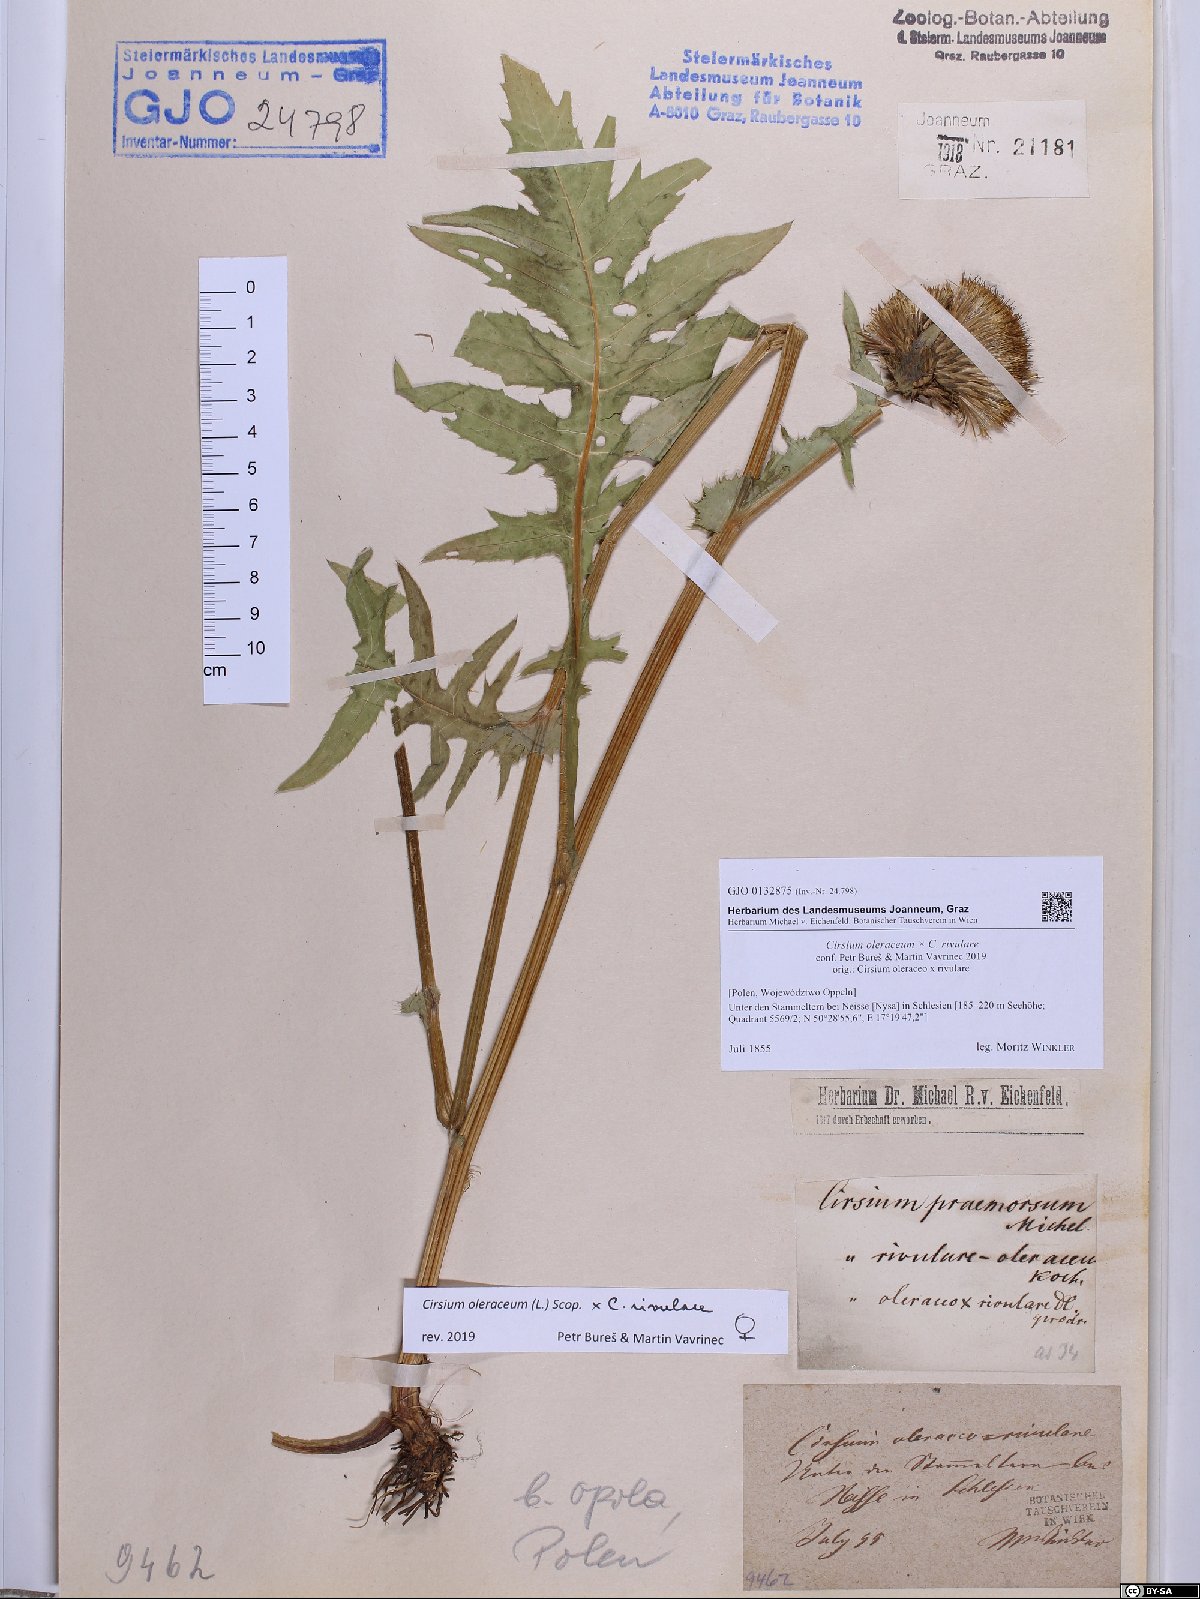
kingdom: Plantae
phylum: Tracheophyta
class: Magnoliopsida
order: Asterales
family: Asteraceae
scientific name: Asteraceae
